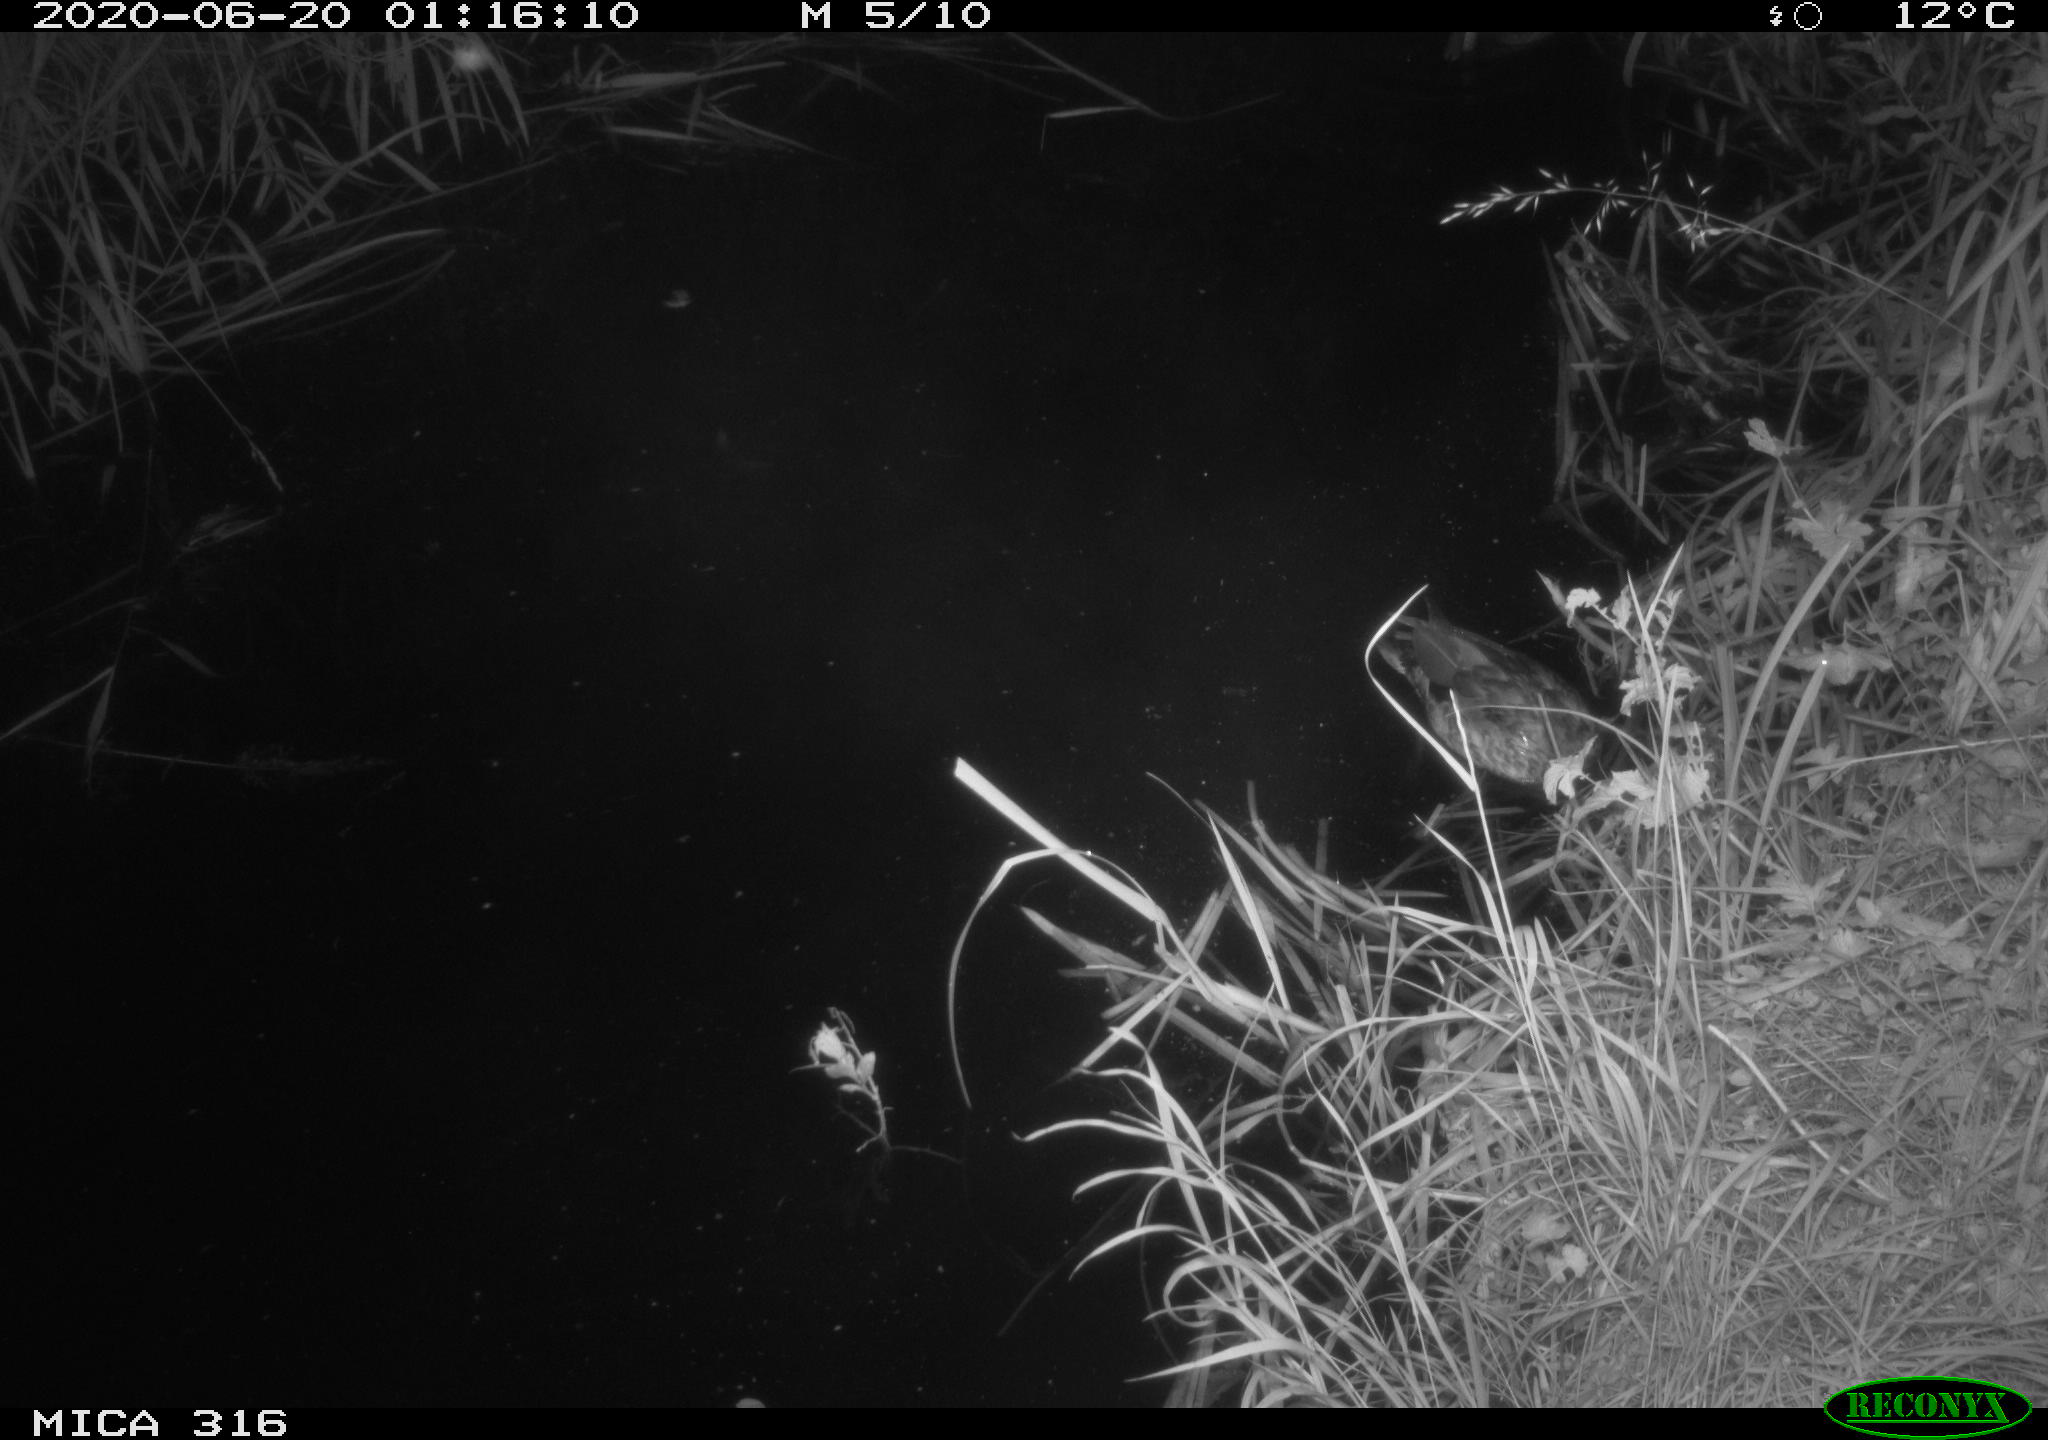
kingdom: Animalia
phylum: Chordata
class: Aves
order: Anseriformes
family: Anatidae
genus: Anas
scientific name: Anas platyrhynchos
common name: Mallard
